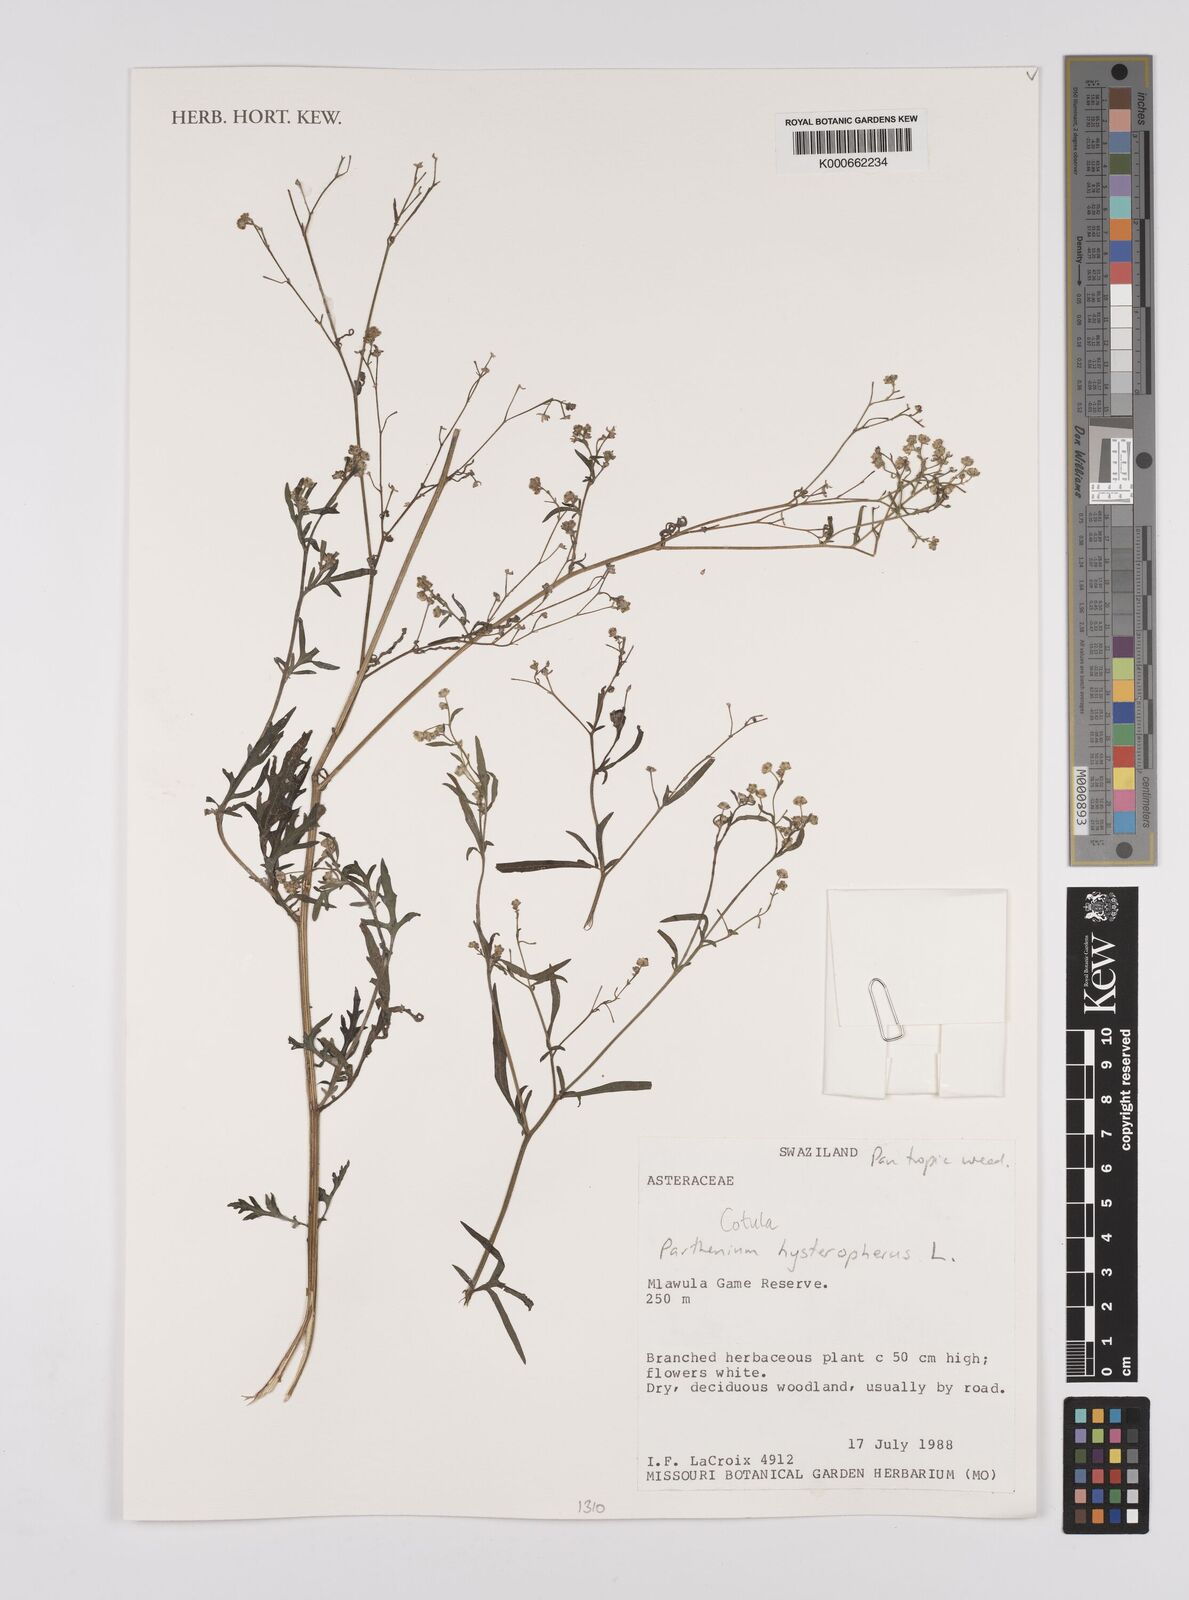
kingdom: Plantae
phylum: Tracheophyta
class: Magnoliopsida
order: Asterales
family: Asteraceae
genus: Cotula
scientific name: Cotula
